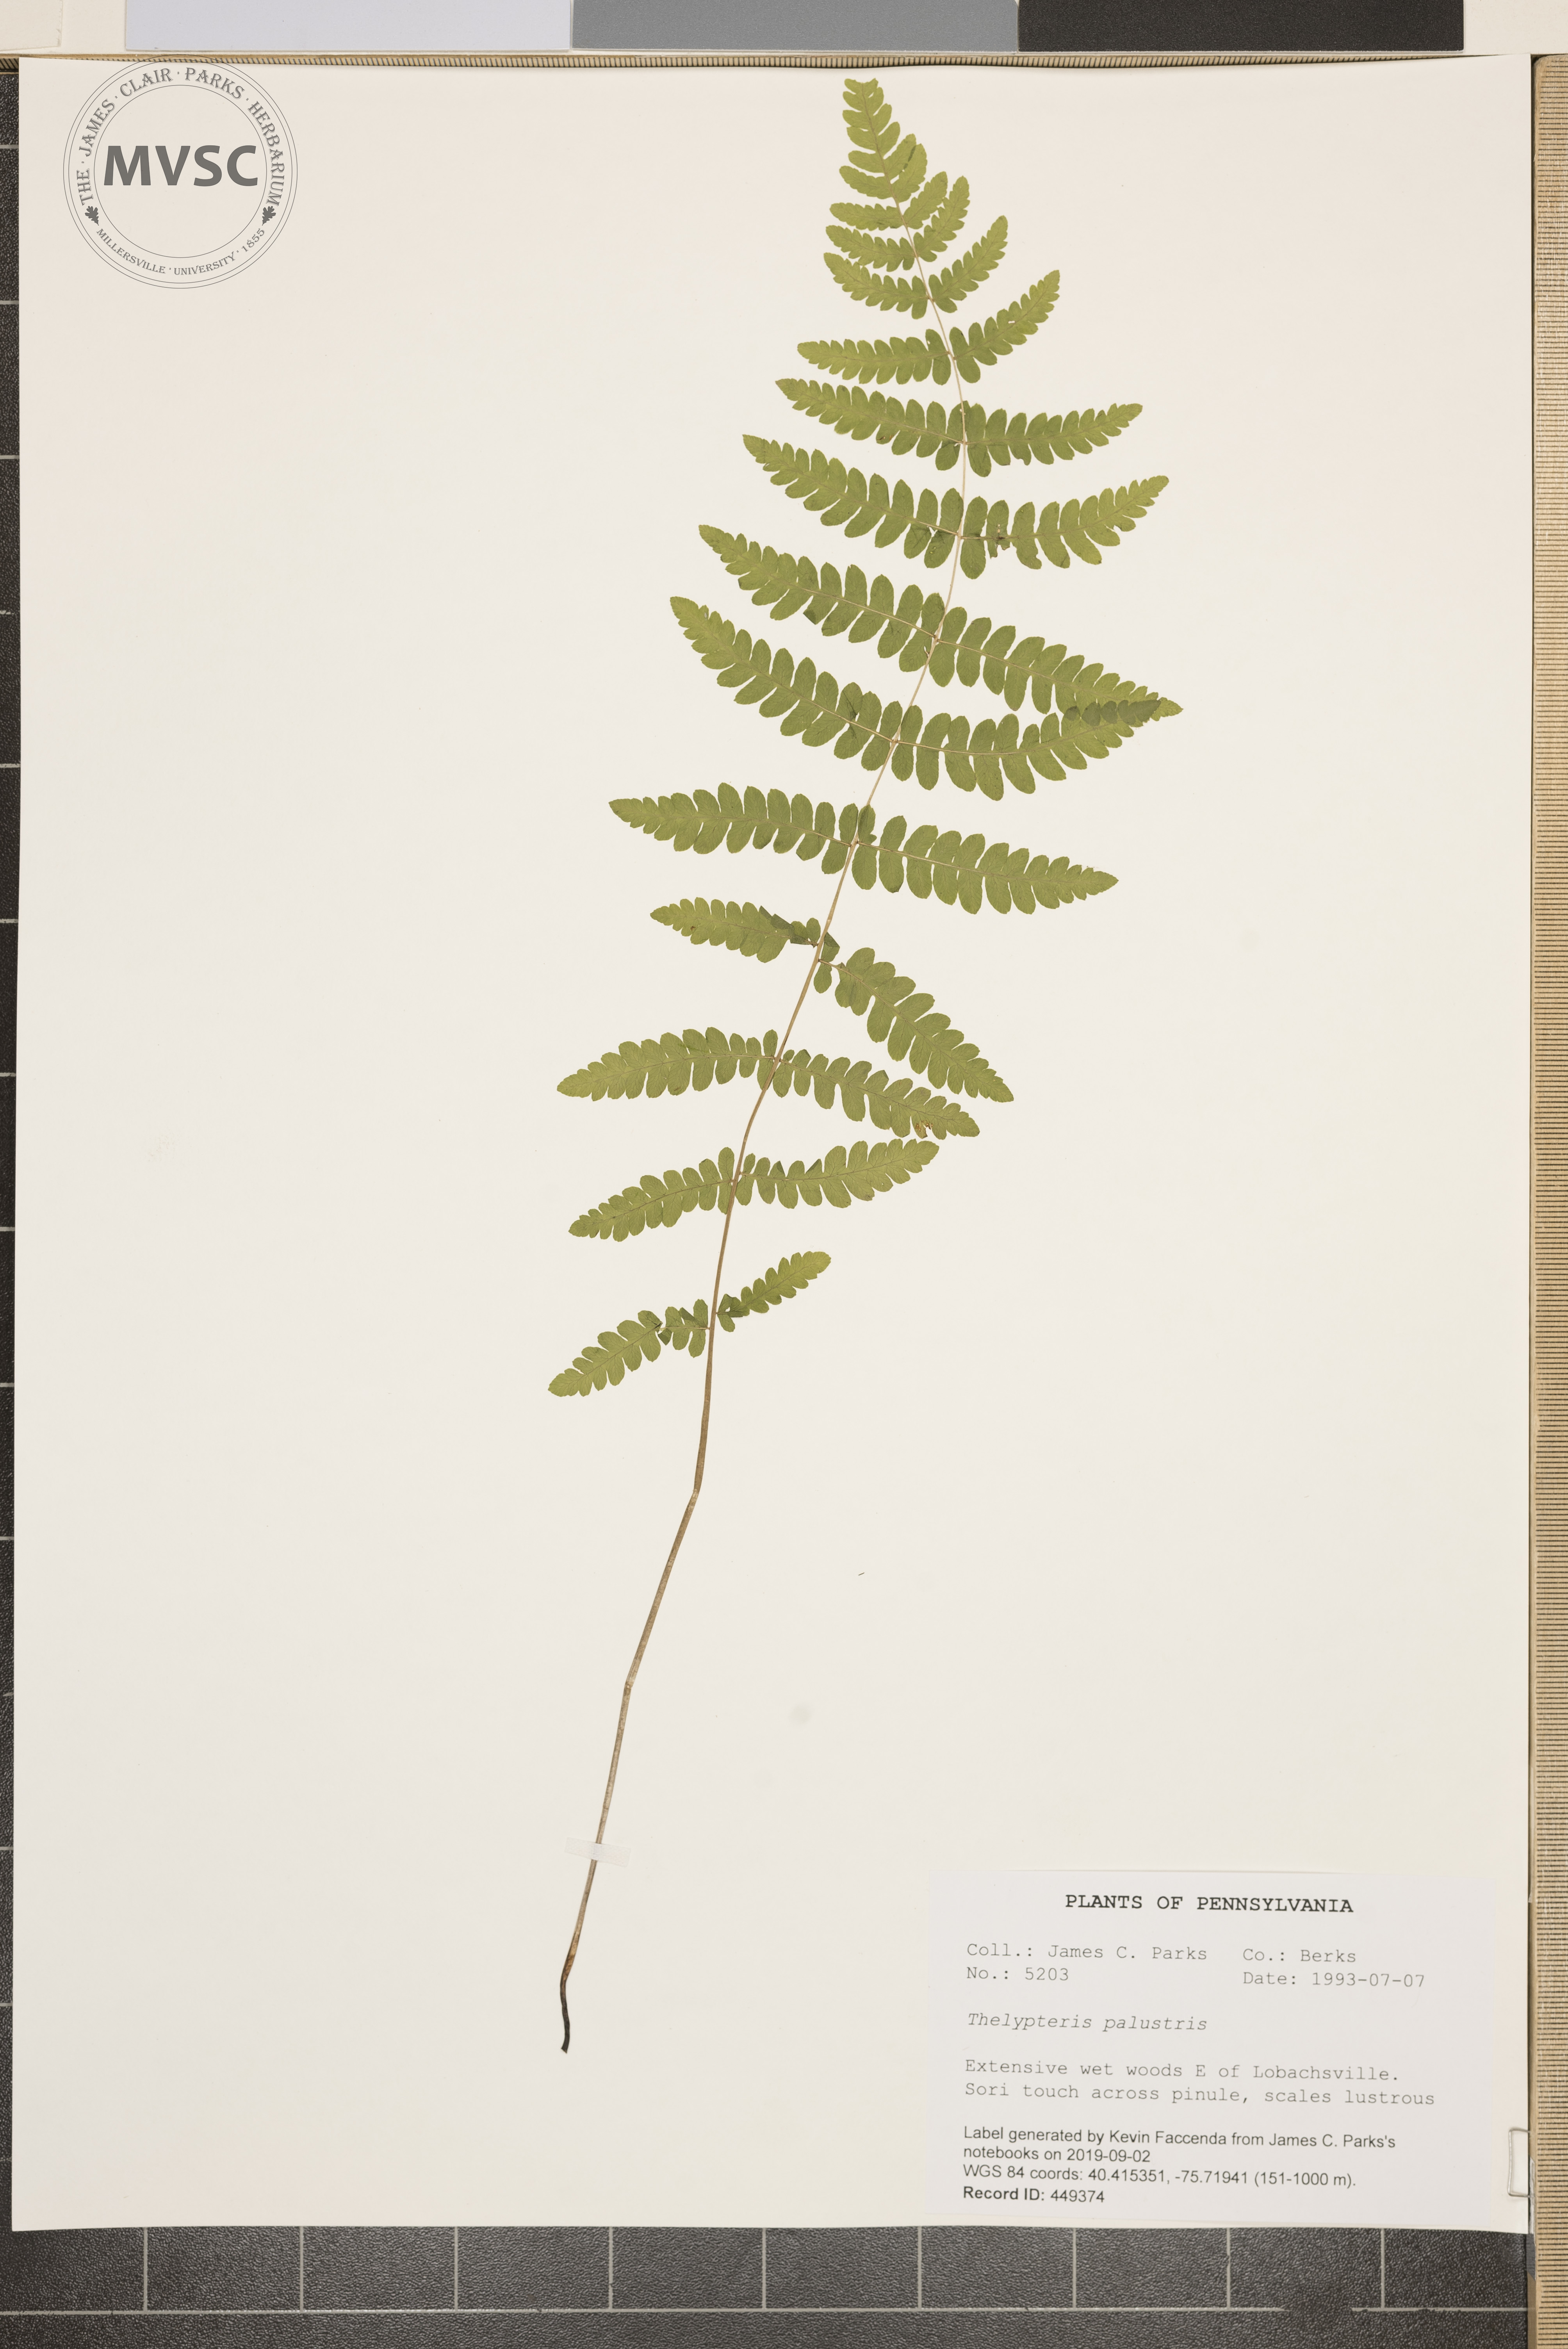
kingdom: Plantae
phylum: Tracheophyta
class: Polypodiopsida
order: Polypodiales
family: Thelypteridaceae
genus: Thelypteris
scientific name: Thelypteris palustris
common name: Marsh fern
